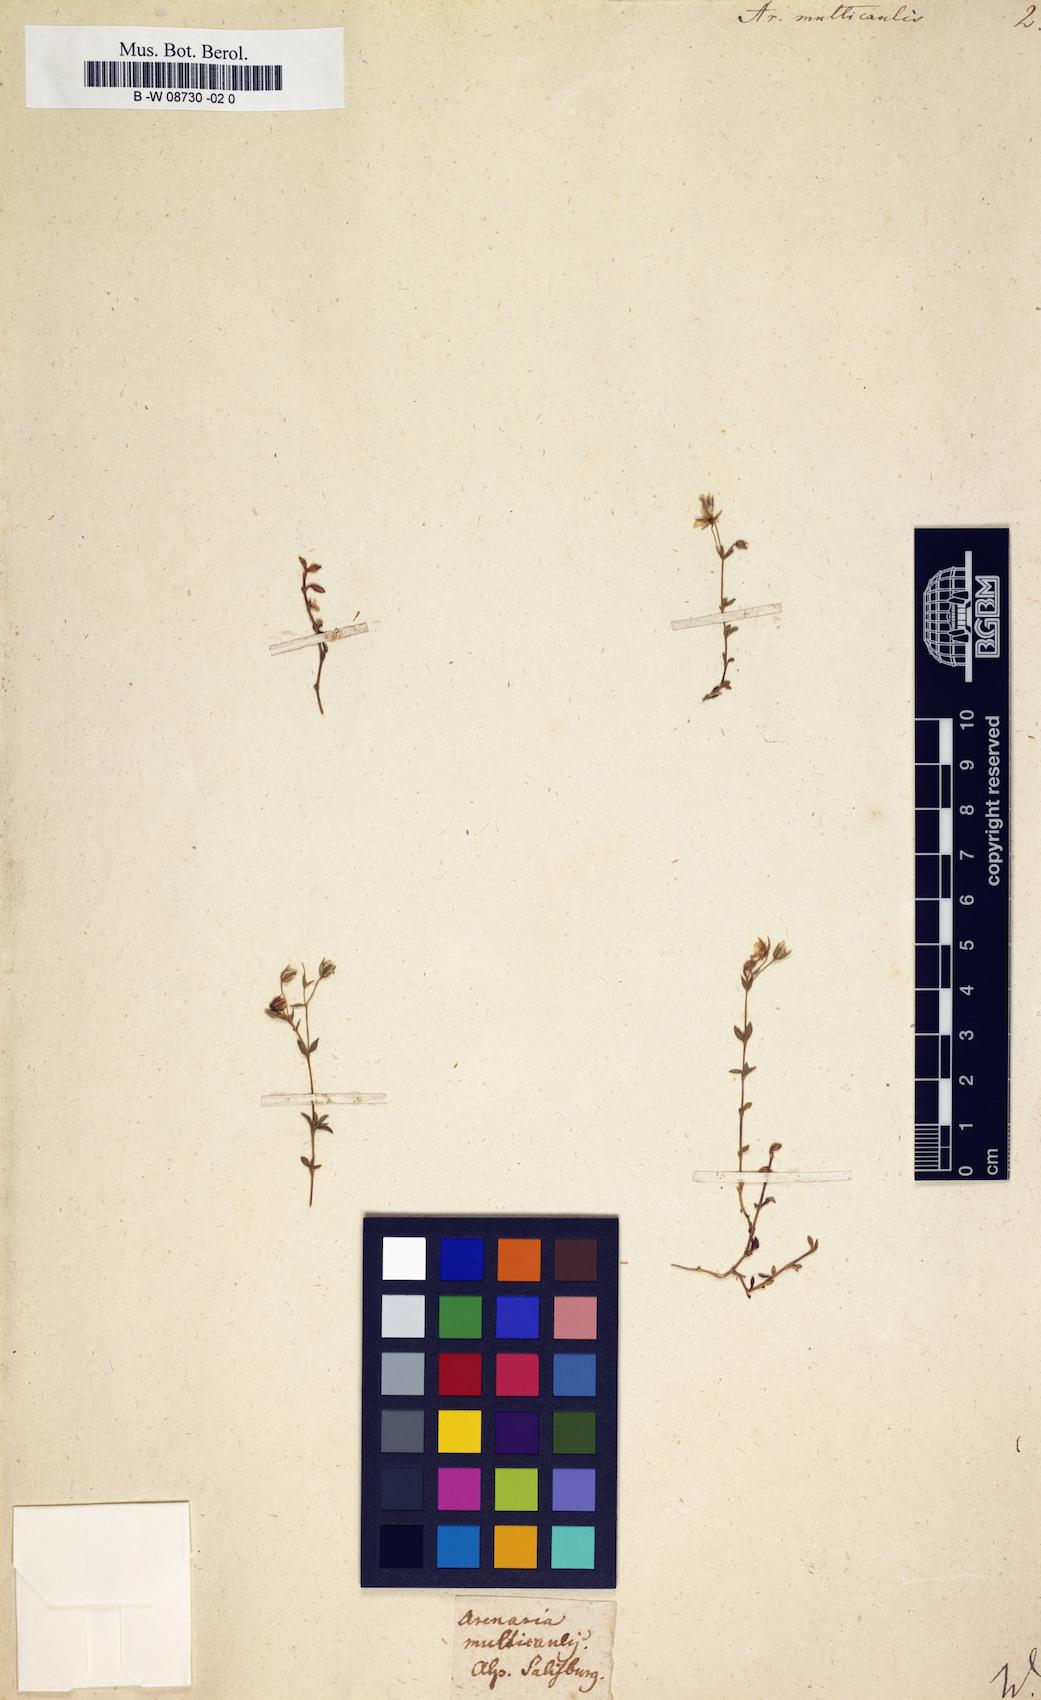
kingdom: Plantae
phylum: Tracheophyta
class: Magnoliopsida
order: Caryophyllales
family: Caryophyllaceae
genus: Arenaria
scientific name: Arenaria ciliata
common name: Fringed sandwort
